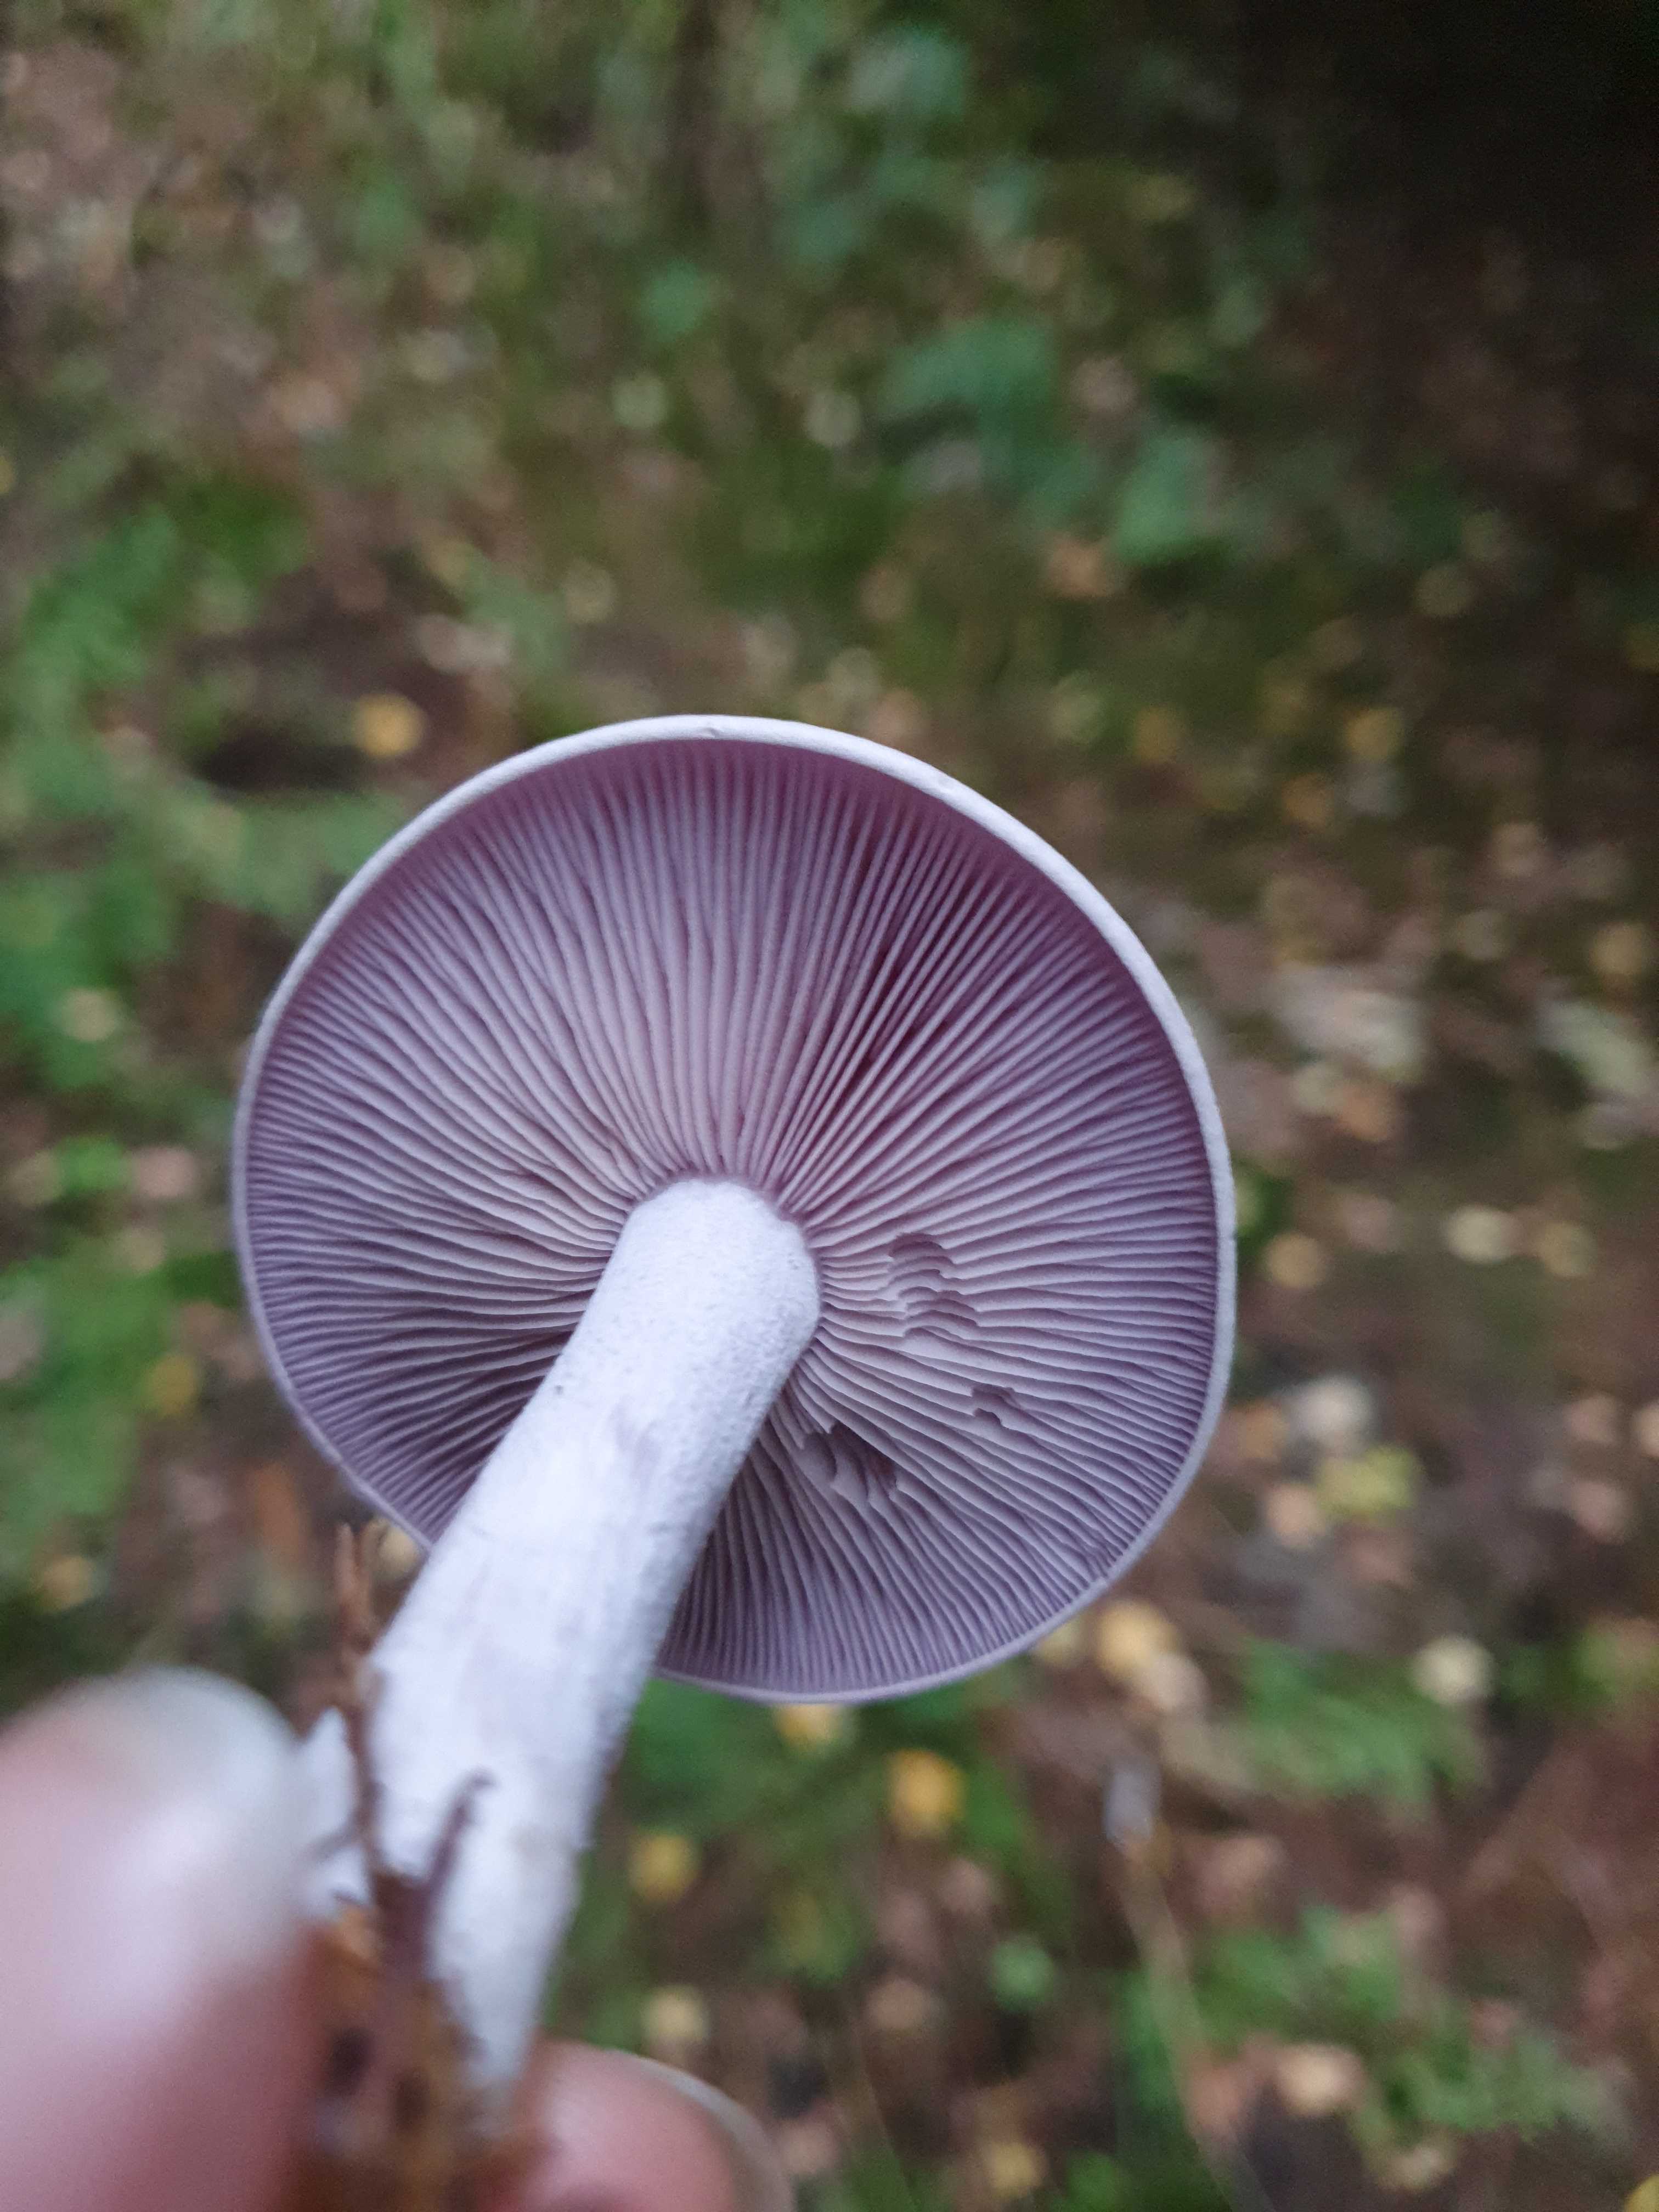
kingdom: Fungi
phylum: Basidiomycota
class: Agaricomycetes
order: Agaricales
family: Tricholomataceae
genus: Lepista
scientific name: Lepista nuda
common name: violet hekseringshat
